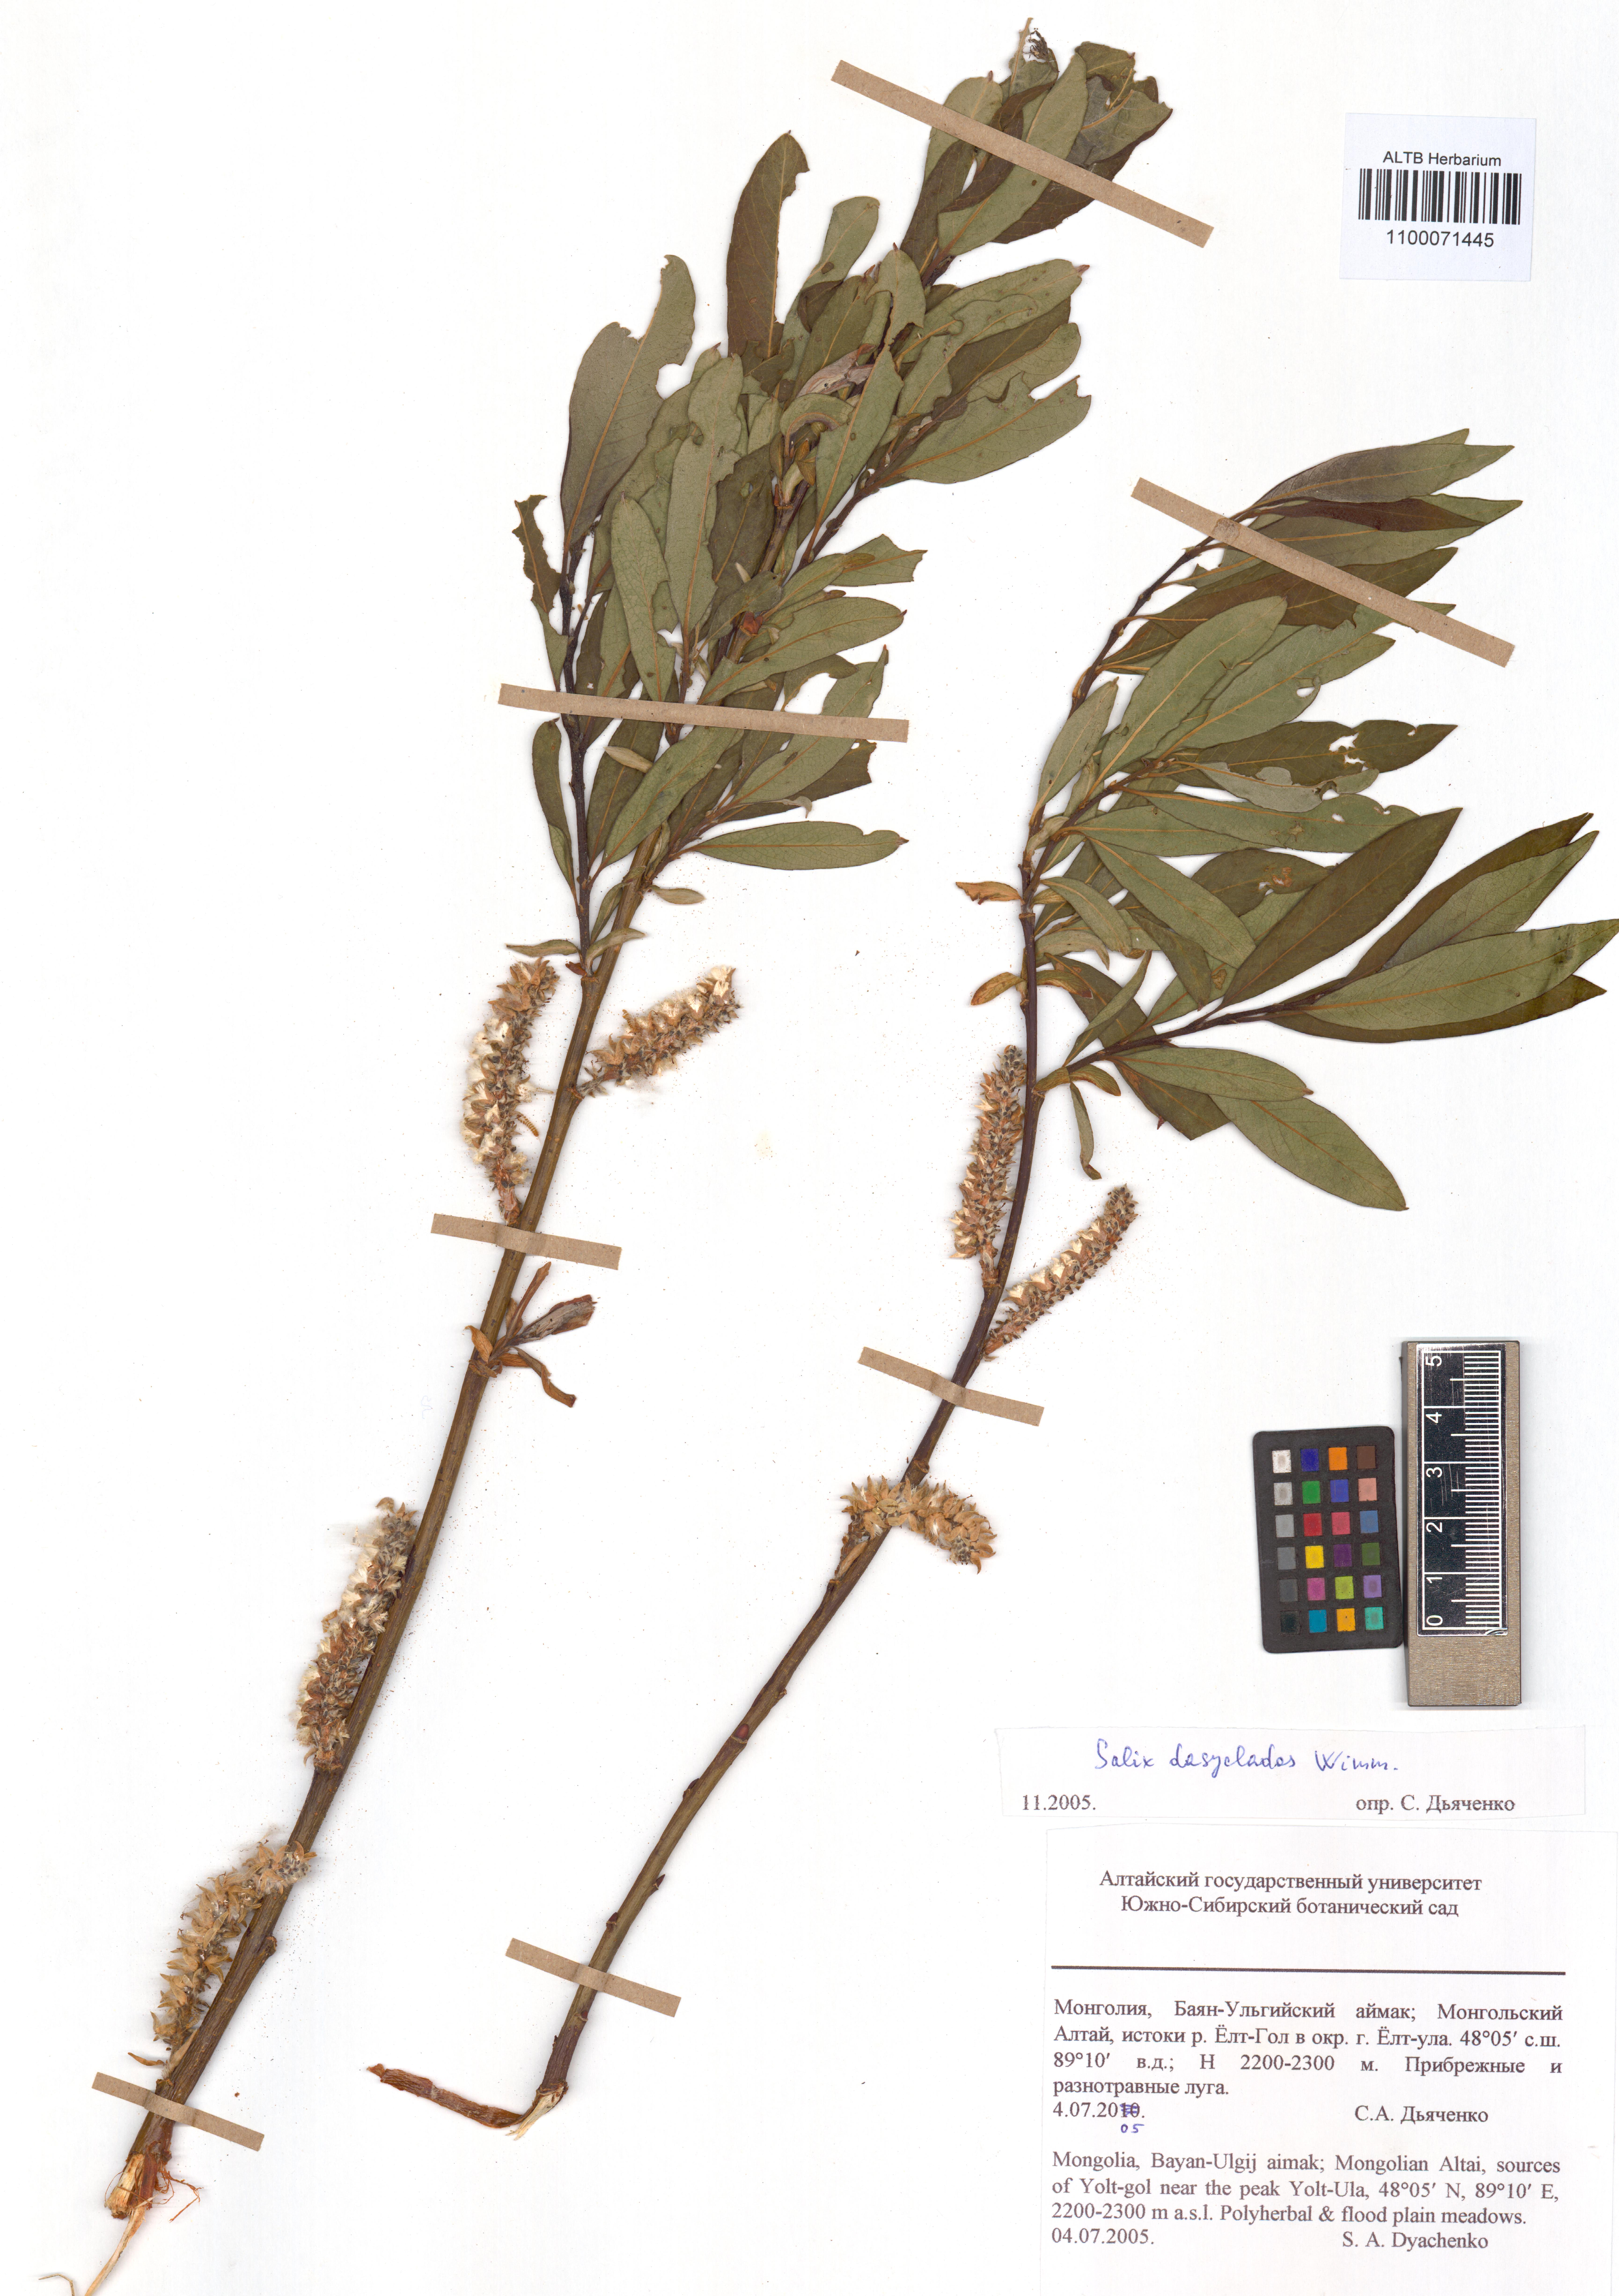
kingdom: Plantae
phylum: Tracheophyta
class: Magnoliopsida
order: Malpighiales
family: Salicaceae
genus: Salix
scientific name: Salix gmelinii
